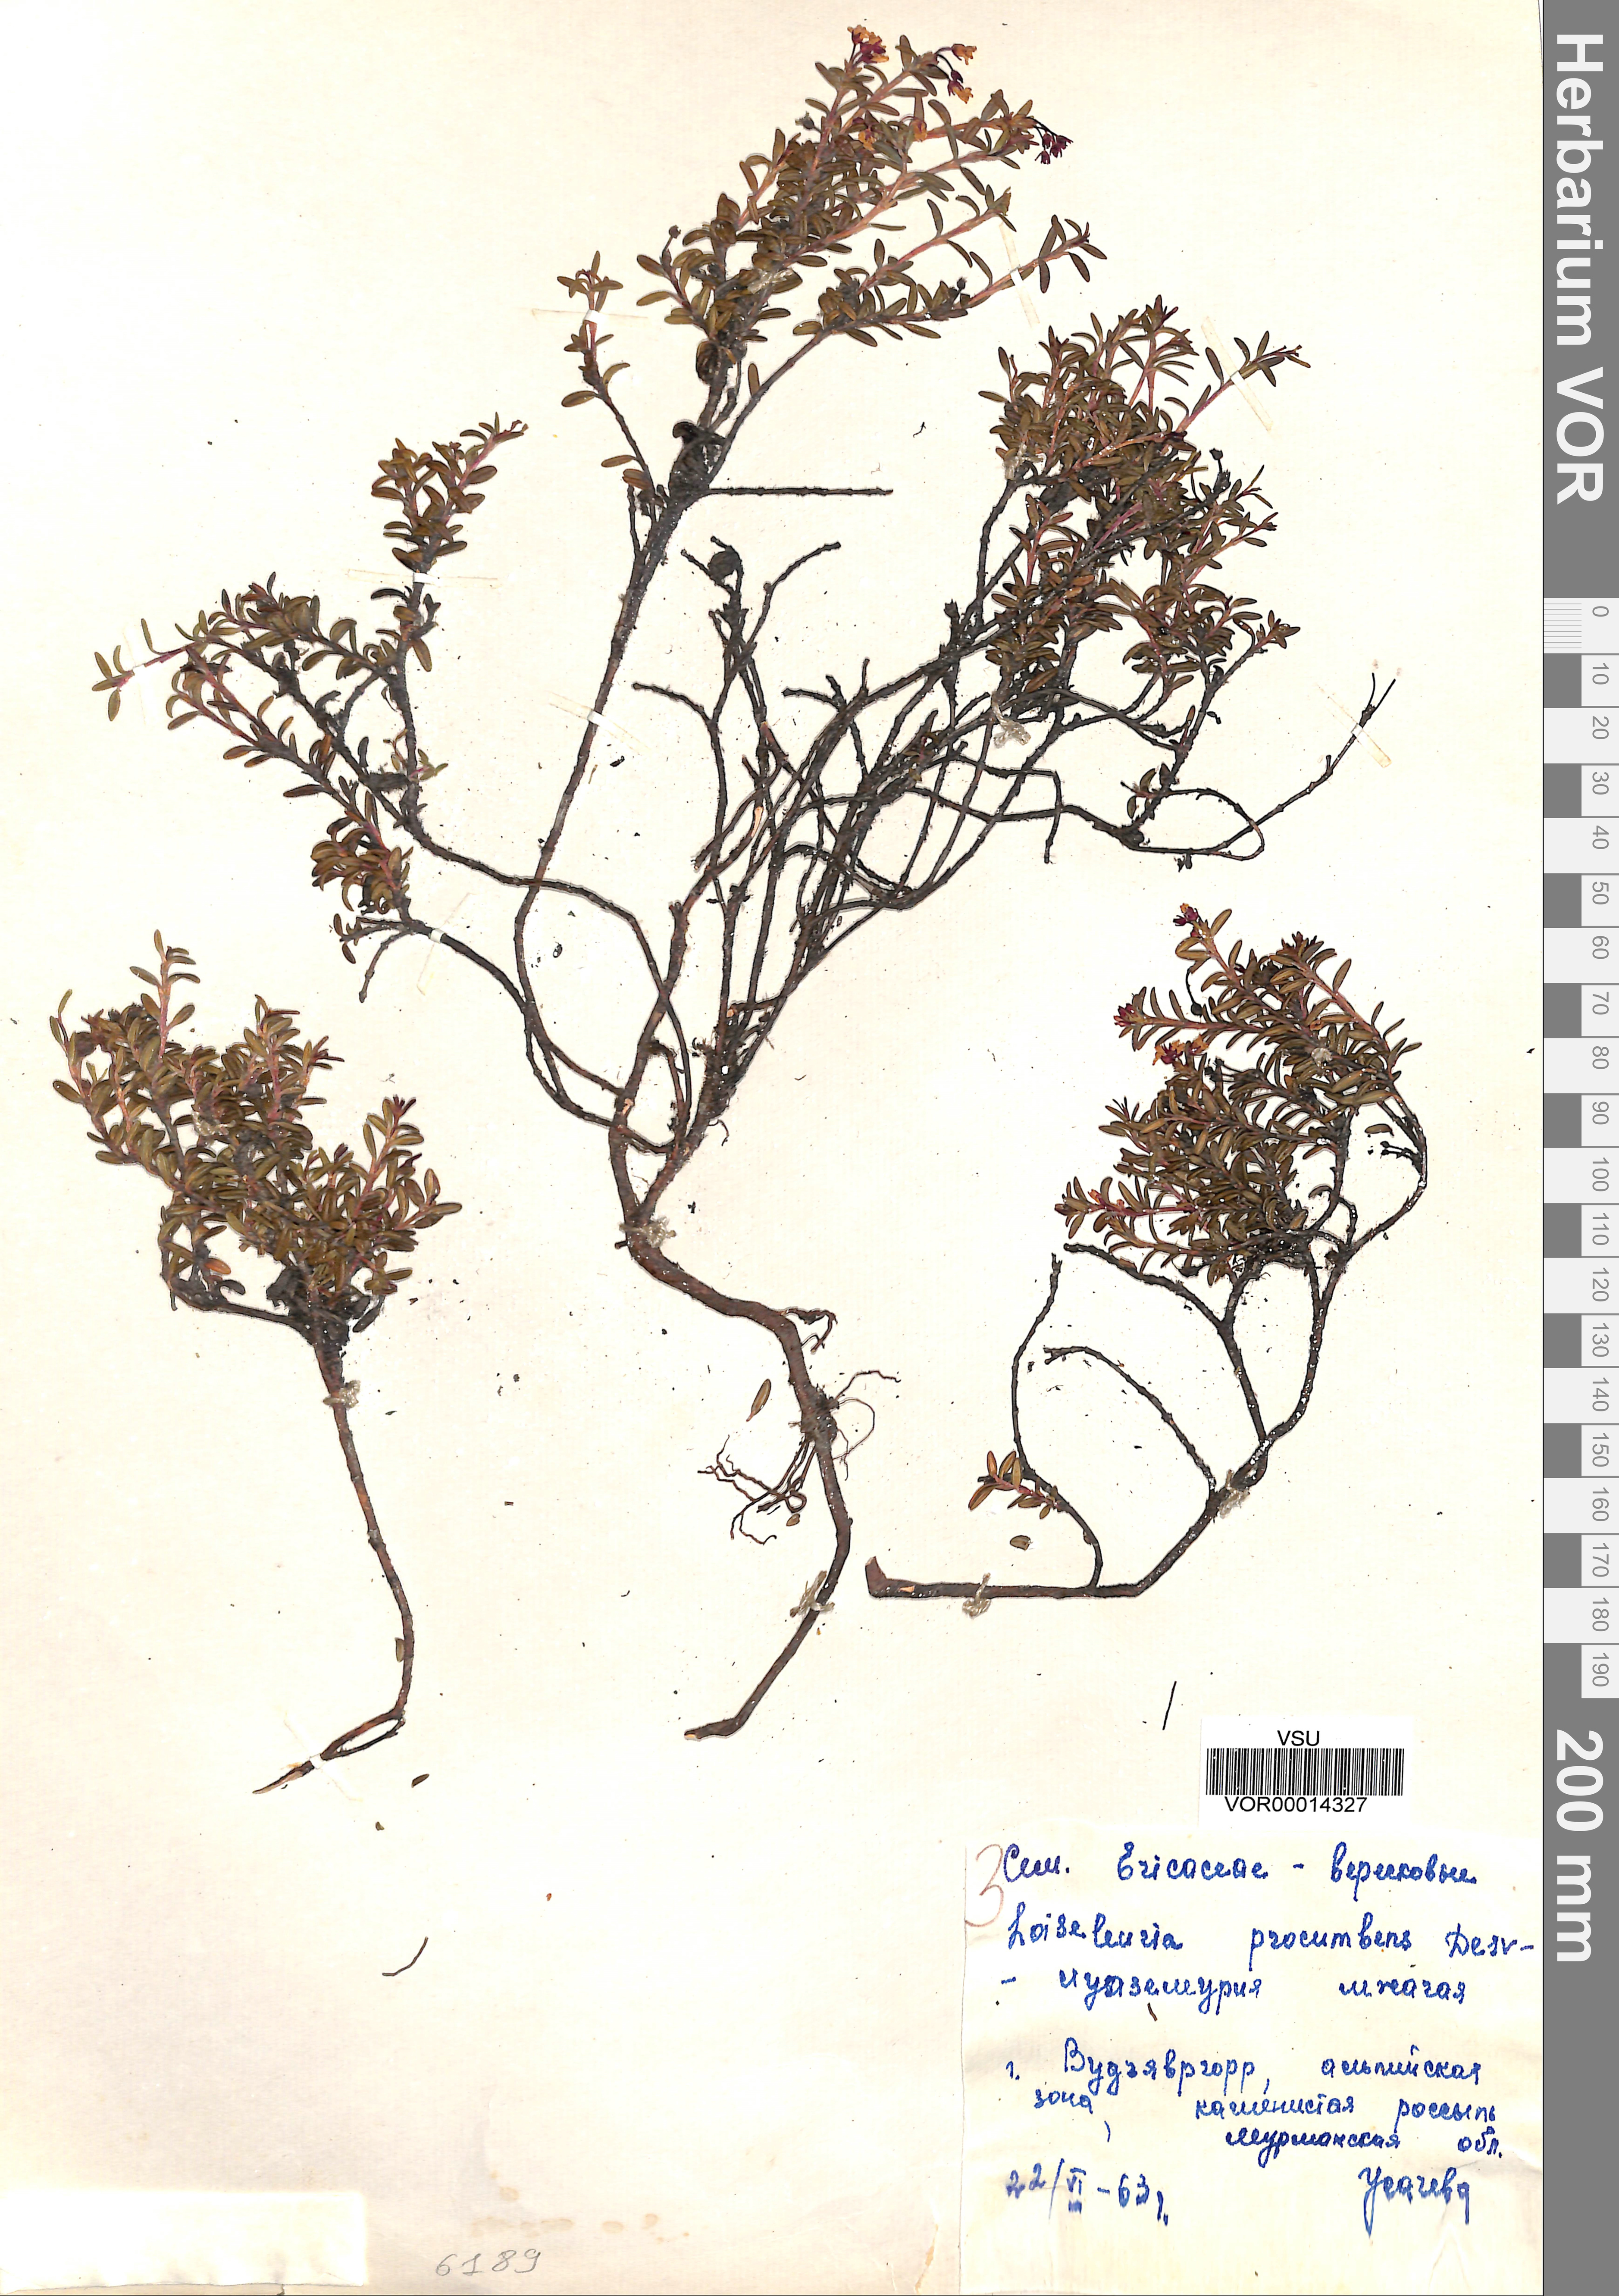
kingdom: Plantae
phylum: Tracheophyta
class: Magnoliopsida
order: Ericales
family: Ericaceae
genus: Kalmia
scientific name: Kalmia procumbens
